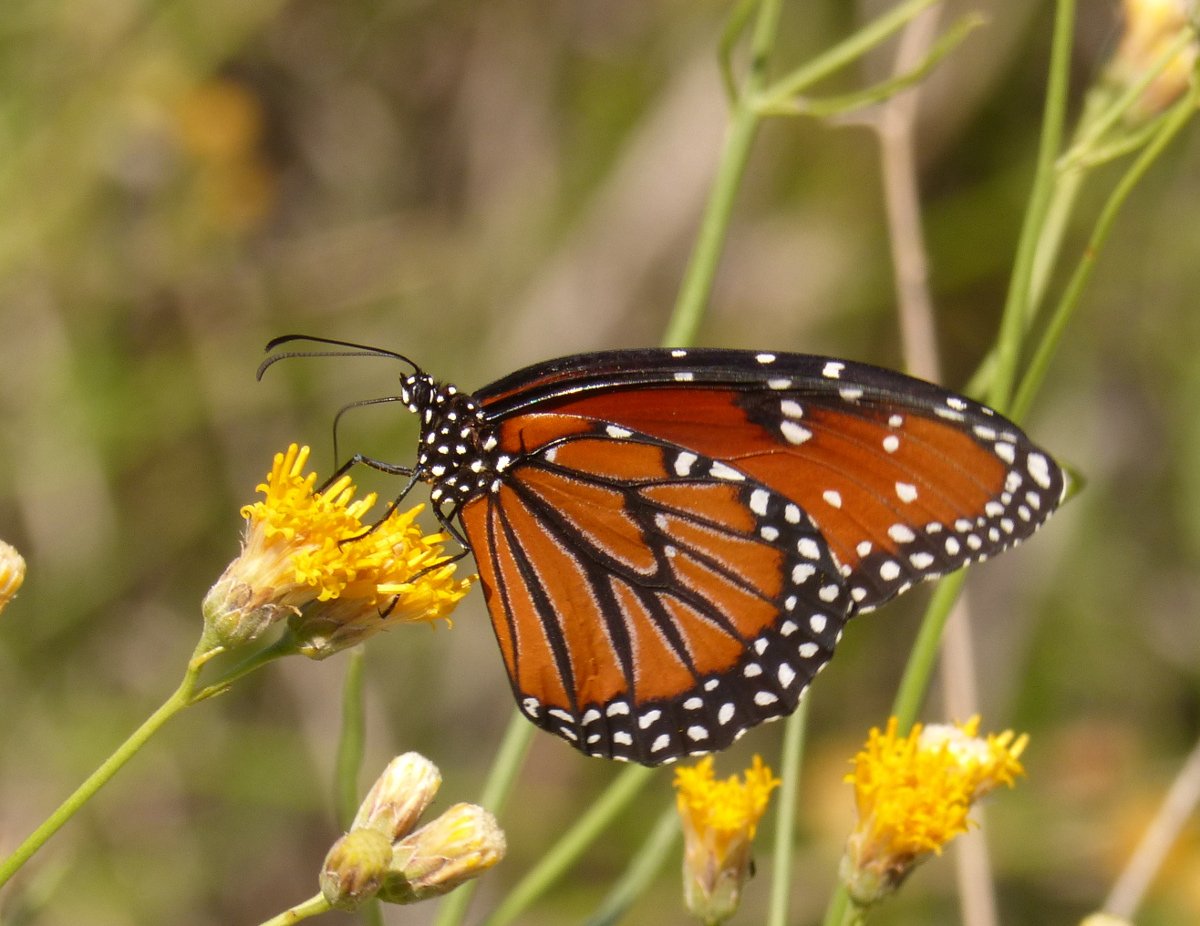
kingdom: Animalia
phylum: Arthropoda
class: Insecta
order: Lepidoptera
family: Nymphalidae
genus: Danaus
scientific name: Danaus gilippus
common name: Queen
